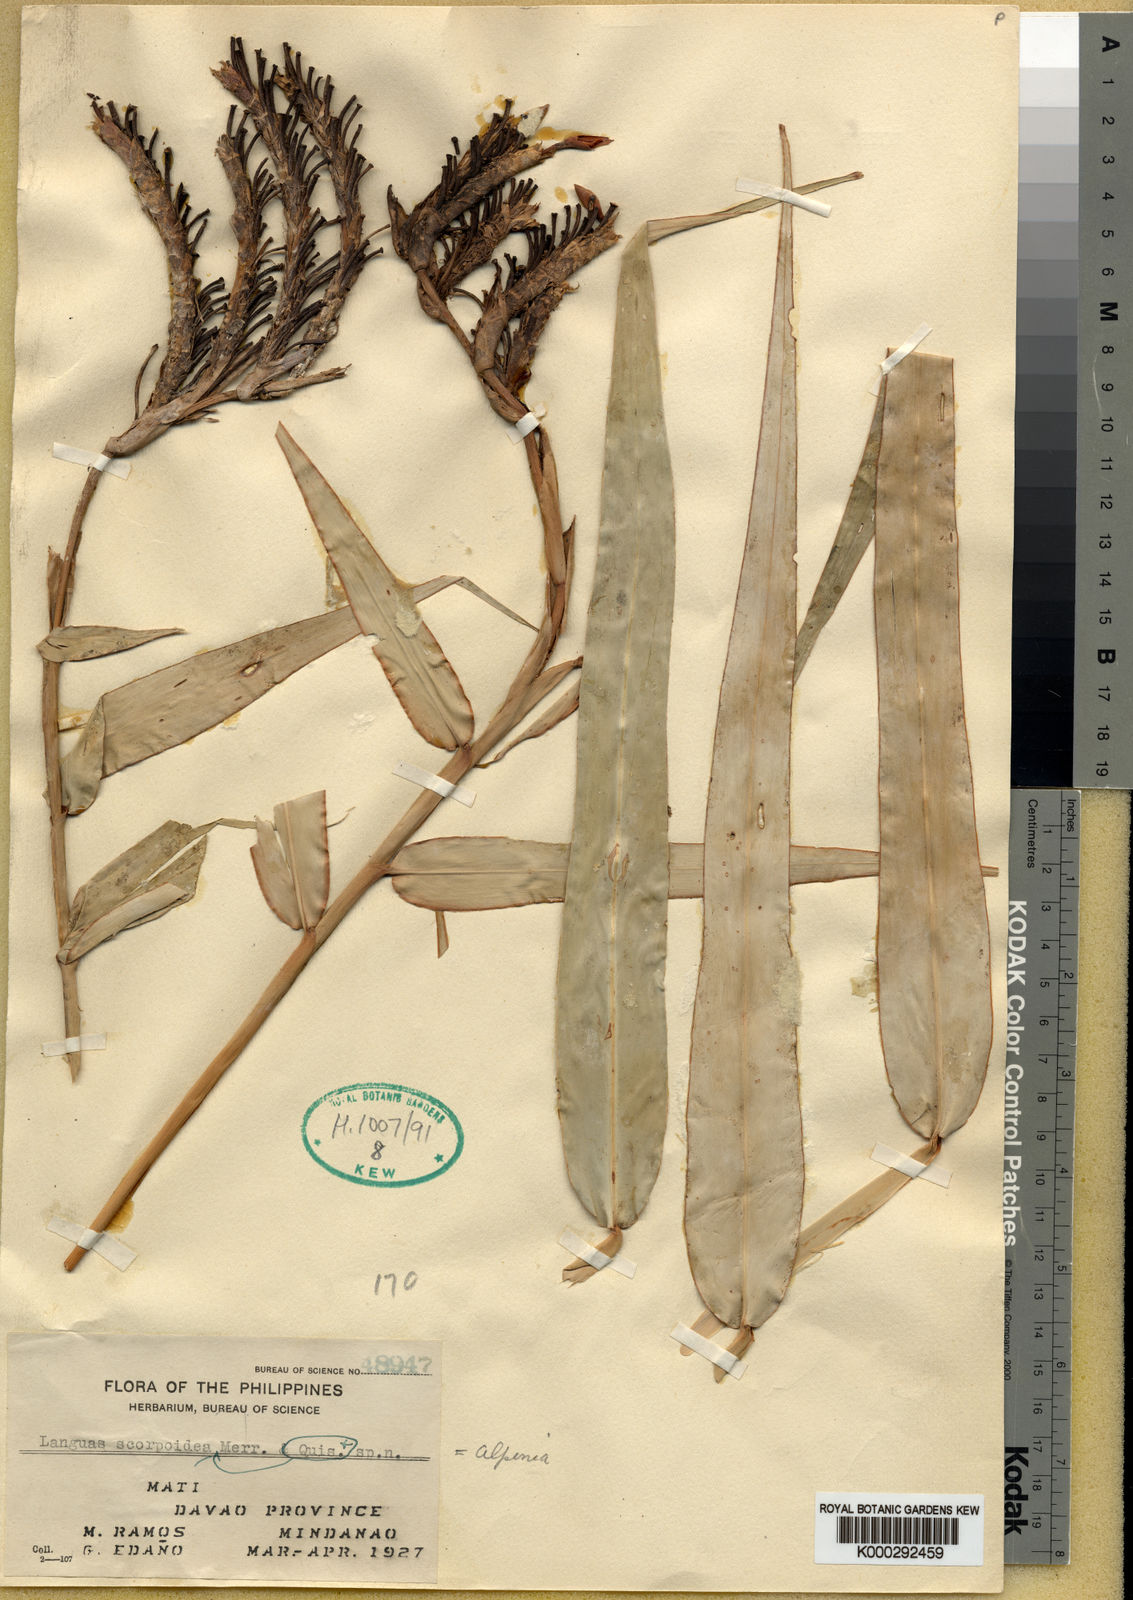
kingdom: Plantae
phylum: Tracheophyta
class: Liliopsida
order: Zingiberales
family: Zingiberaceae
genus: Alpinia
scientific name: Alpinia
